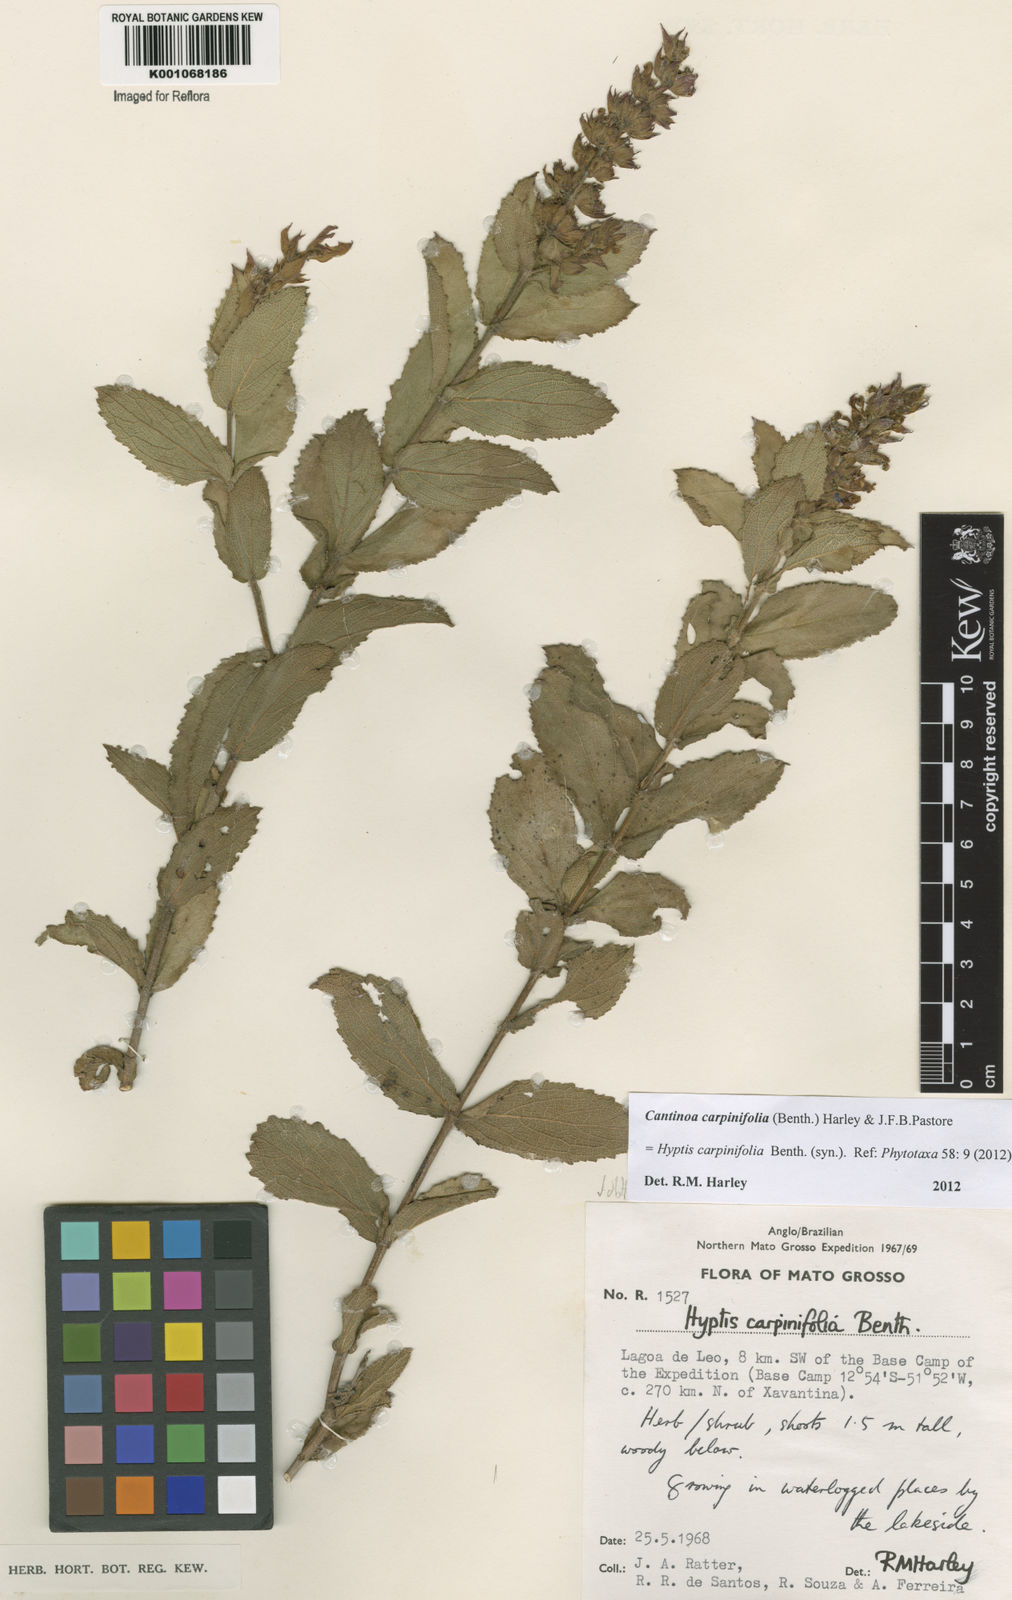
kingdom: Plantae
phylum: Tracheophyta
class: Magnoliopsida
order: Lamiales
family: Lamiaceae
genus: Cantinoa
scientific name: Cantinoa carpinifolia
